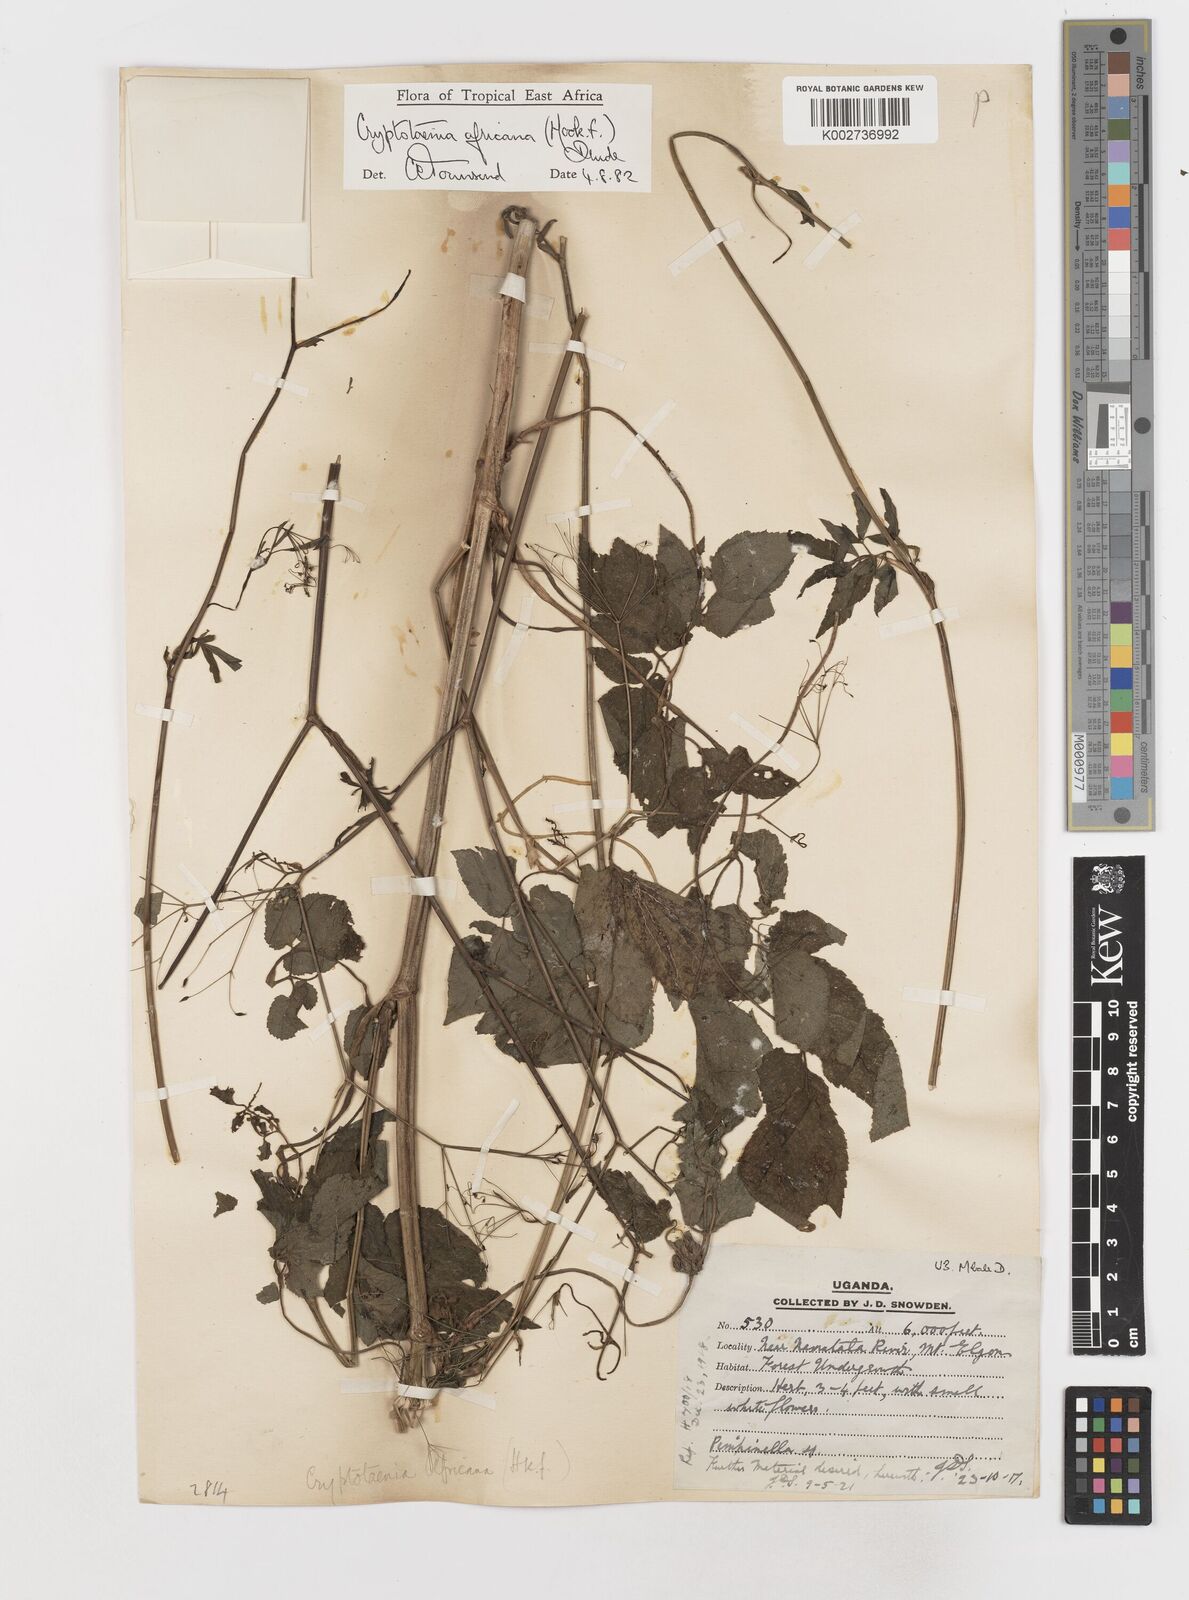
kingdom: Plantae
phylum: Tracheophyta
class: Magnoliopsida
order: Apiales
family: Apiaceae
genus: Cryptotaenia
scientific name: Cryptotaenia africana
